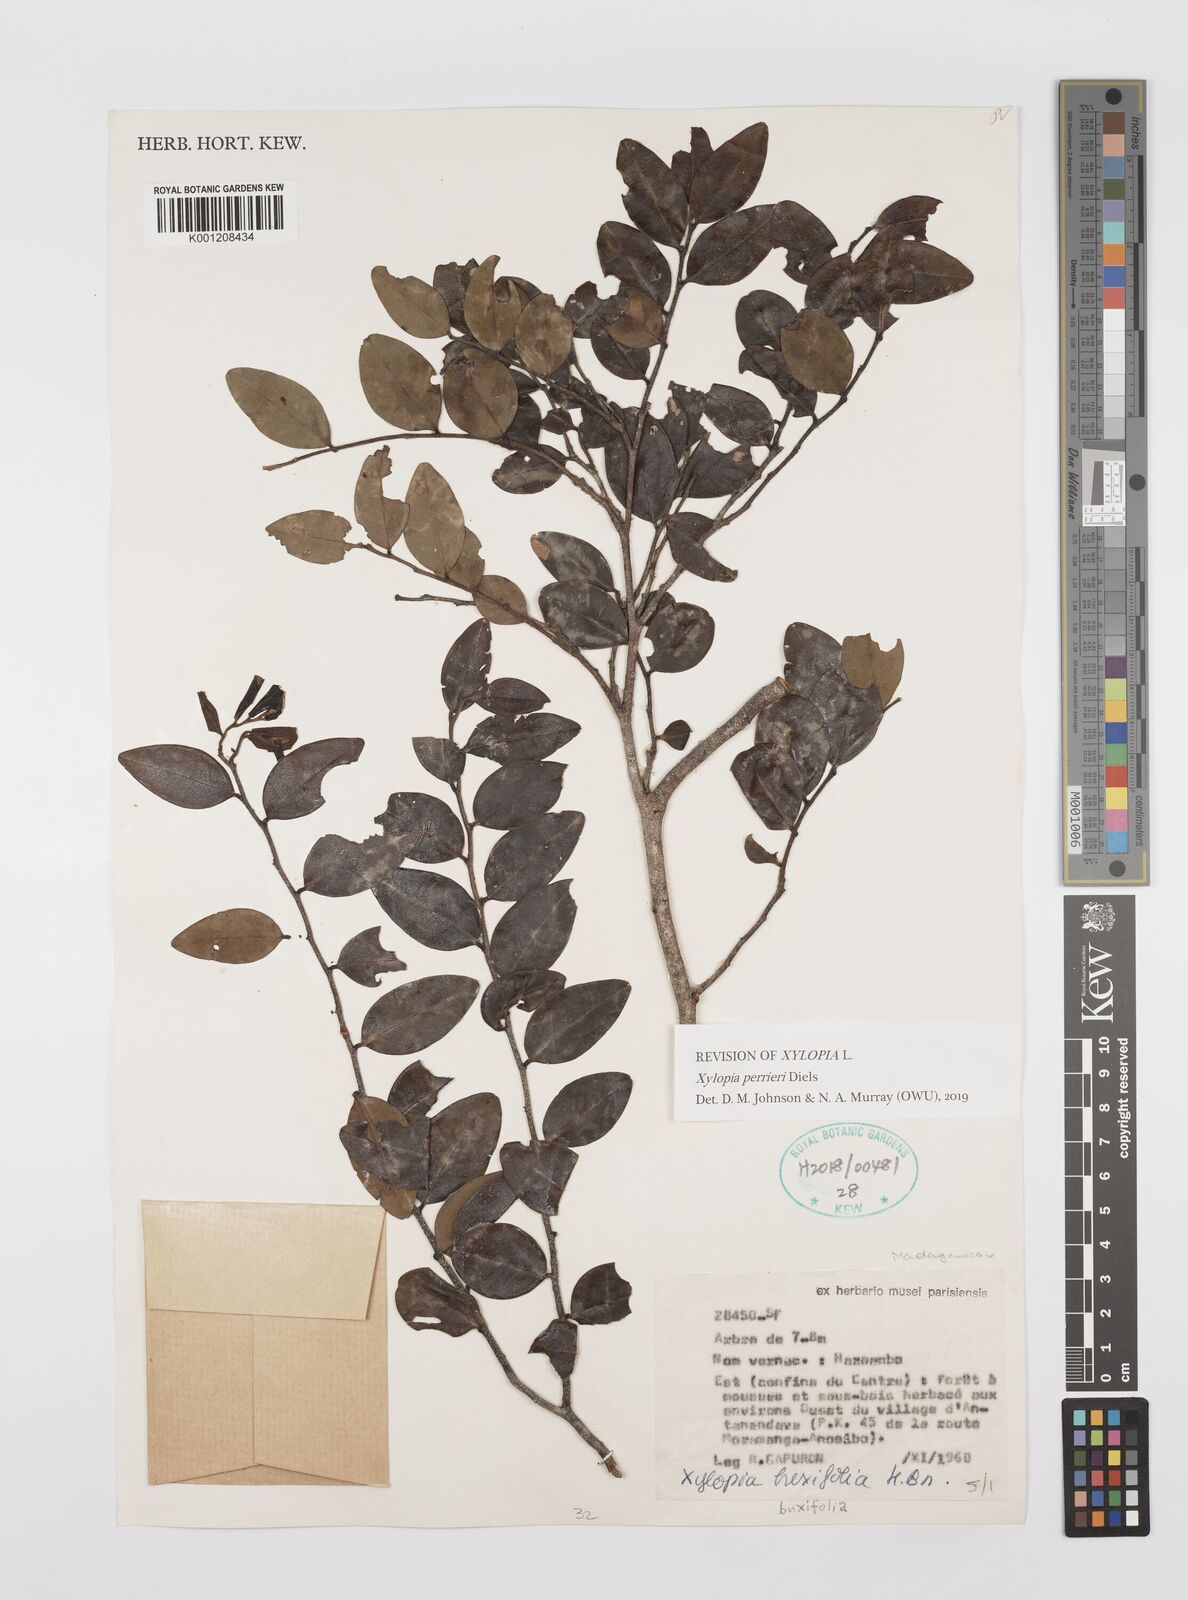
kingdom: Plantae
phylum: Tracheophyta
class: Magnoliopsida
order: Magnoliales
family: Annonaceae
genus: Xylopia
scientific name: Xylopia buxifolia
